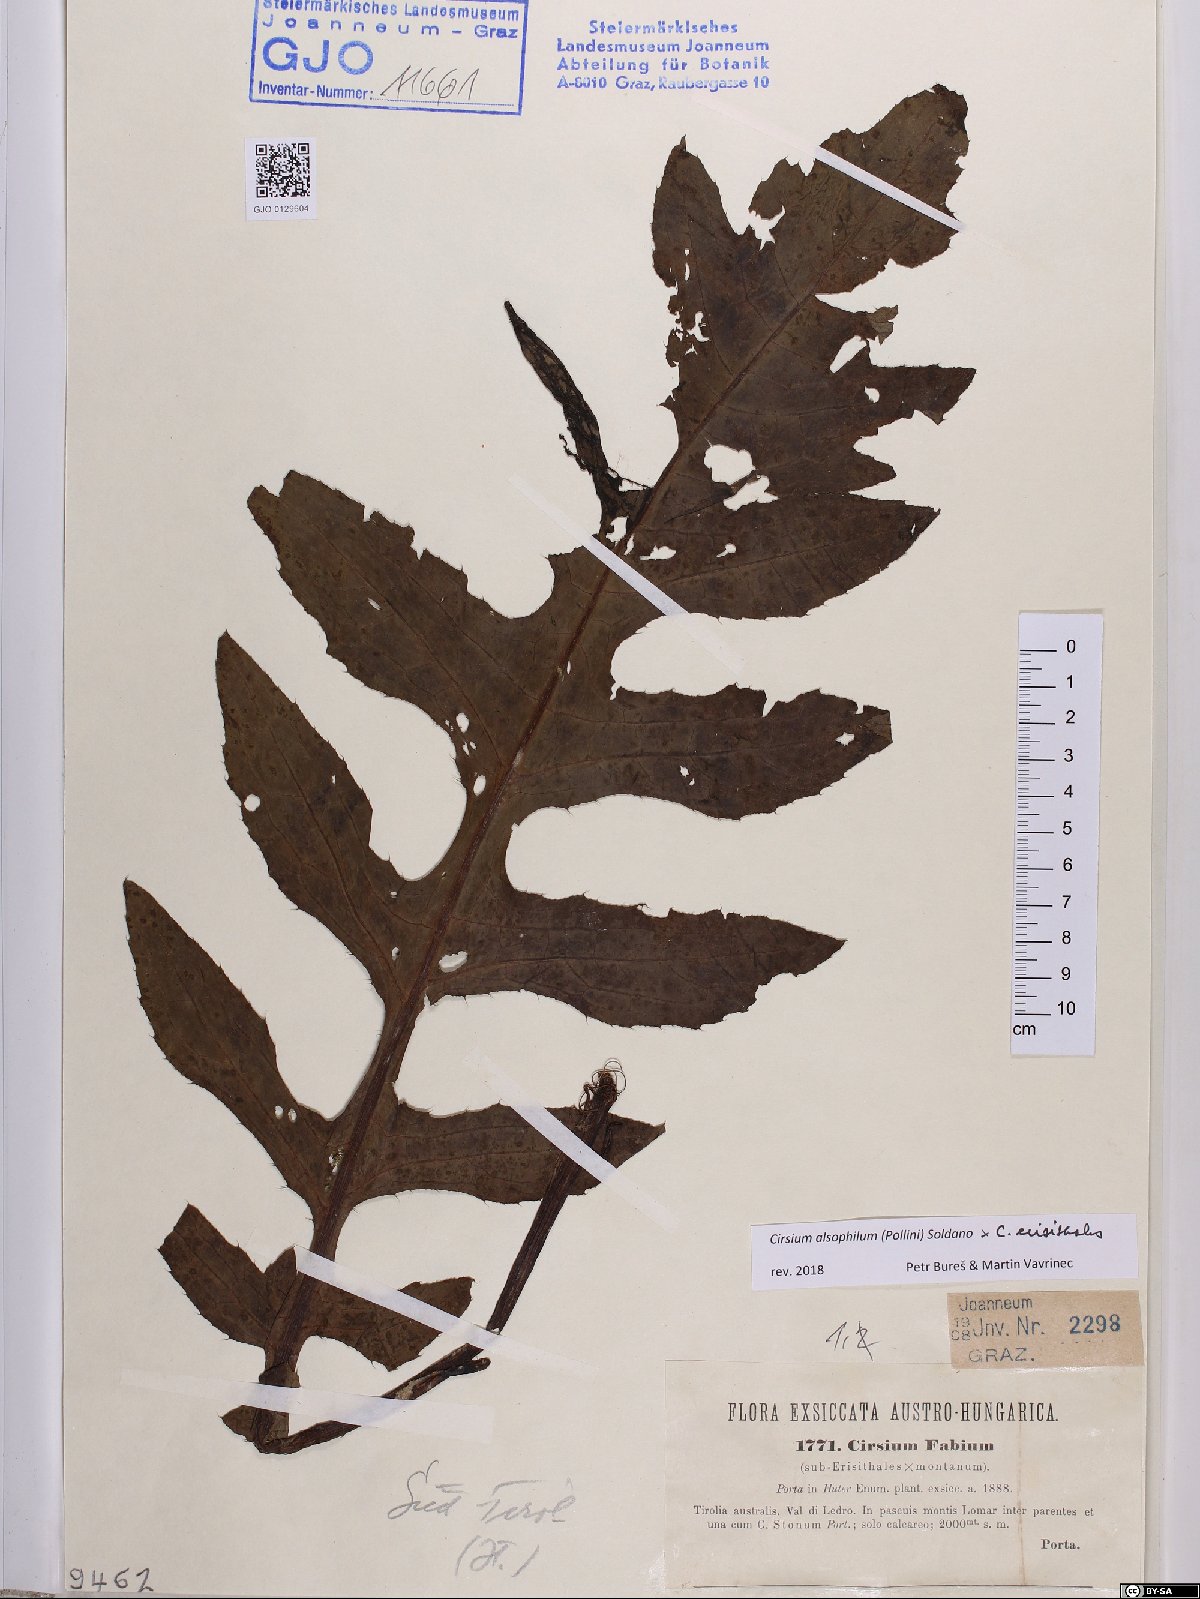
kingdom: Plantae
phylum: Tracheophyta
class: Magnoliopsida
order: Asterales
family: Asteraceae
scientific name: Asteraceae
